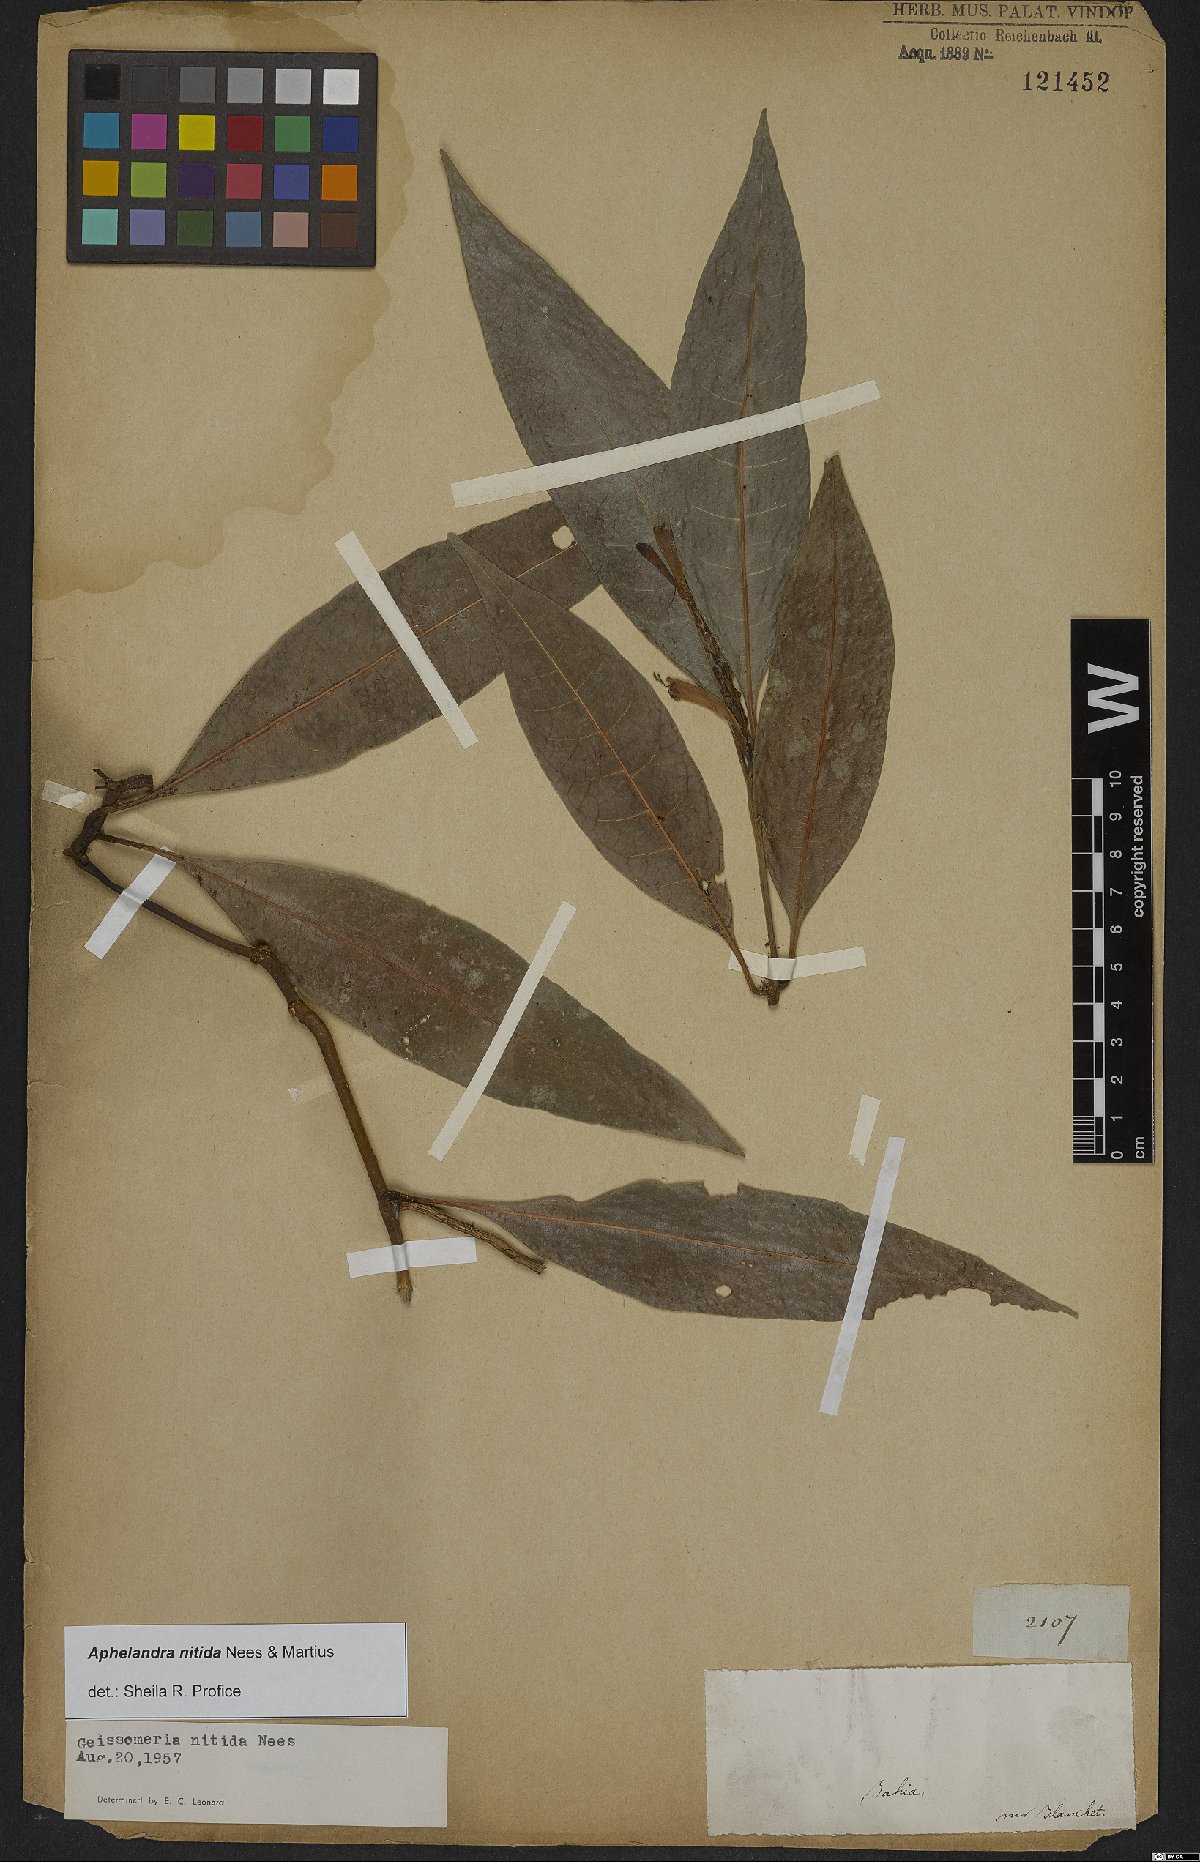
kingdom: Plantae
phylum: Tracheophyta
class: Magnoliopsida
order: Lamiales
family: Acanthaceae
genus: Aphelandra
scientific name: Aphelandra nitida
